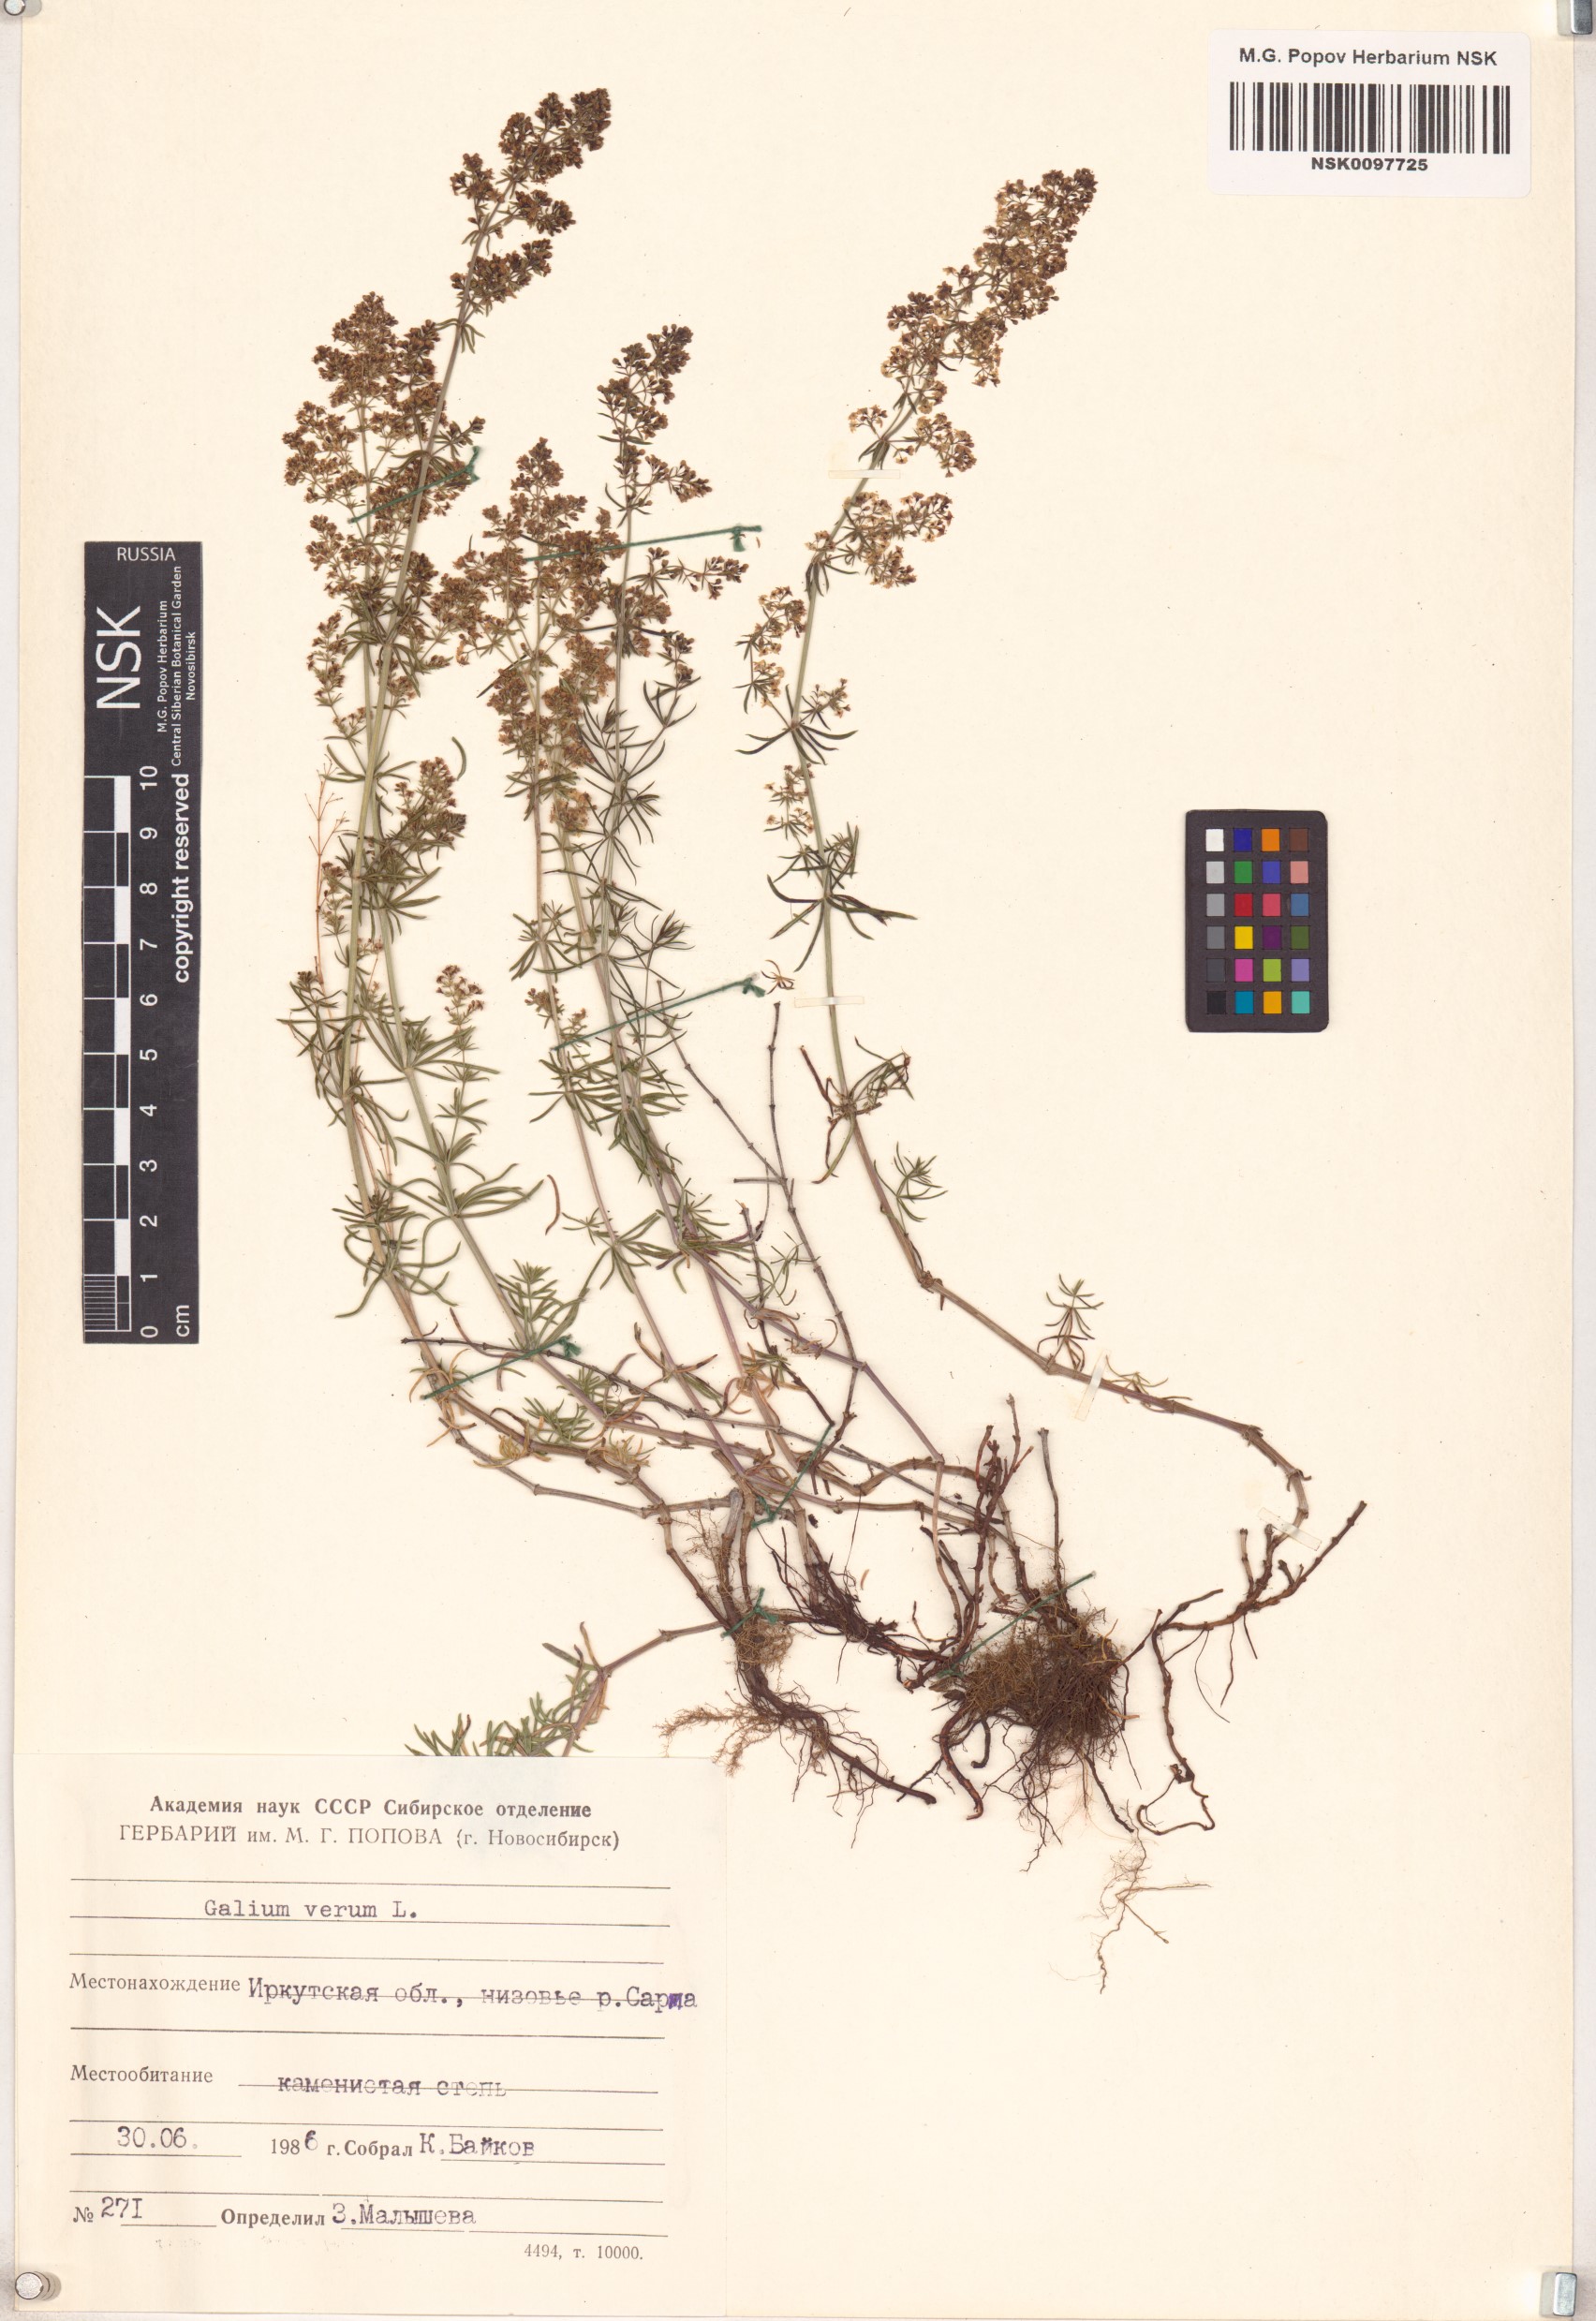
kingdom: Plantae
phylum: Tracheophyta
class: Magnoliopsida
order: Gentianales
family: Rubiaceae
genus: Galium
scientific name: Galium verum
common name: Lady's bedstraw
